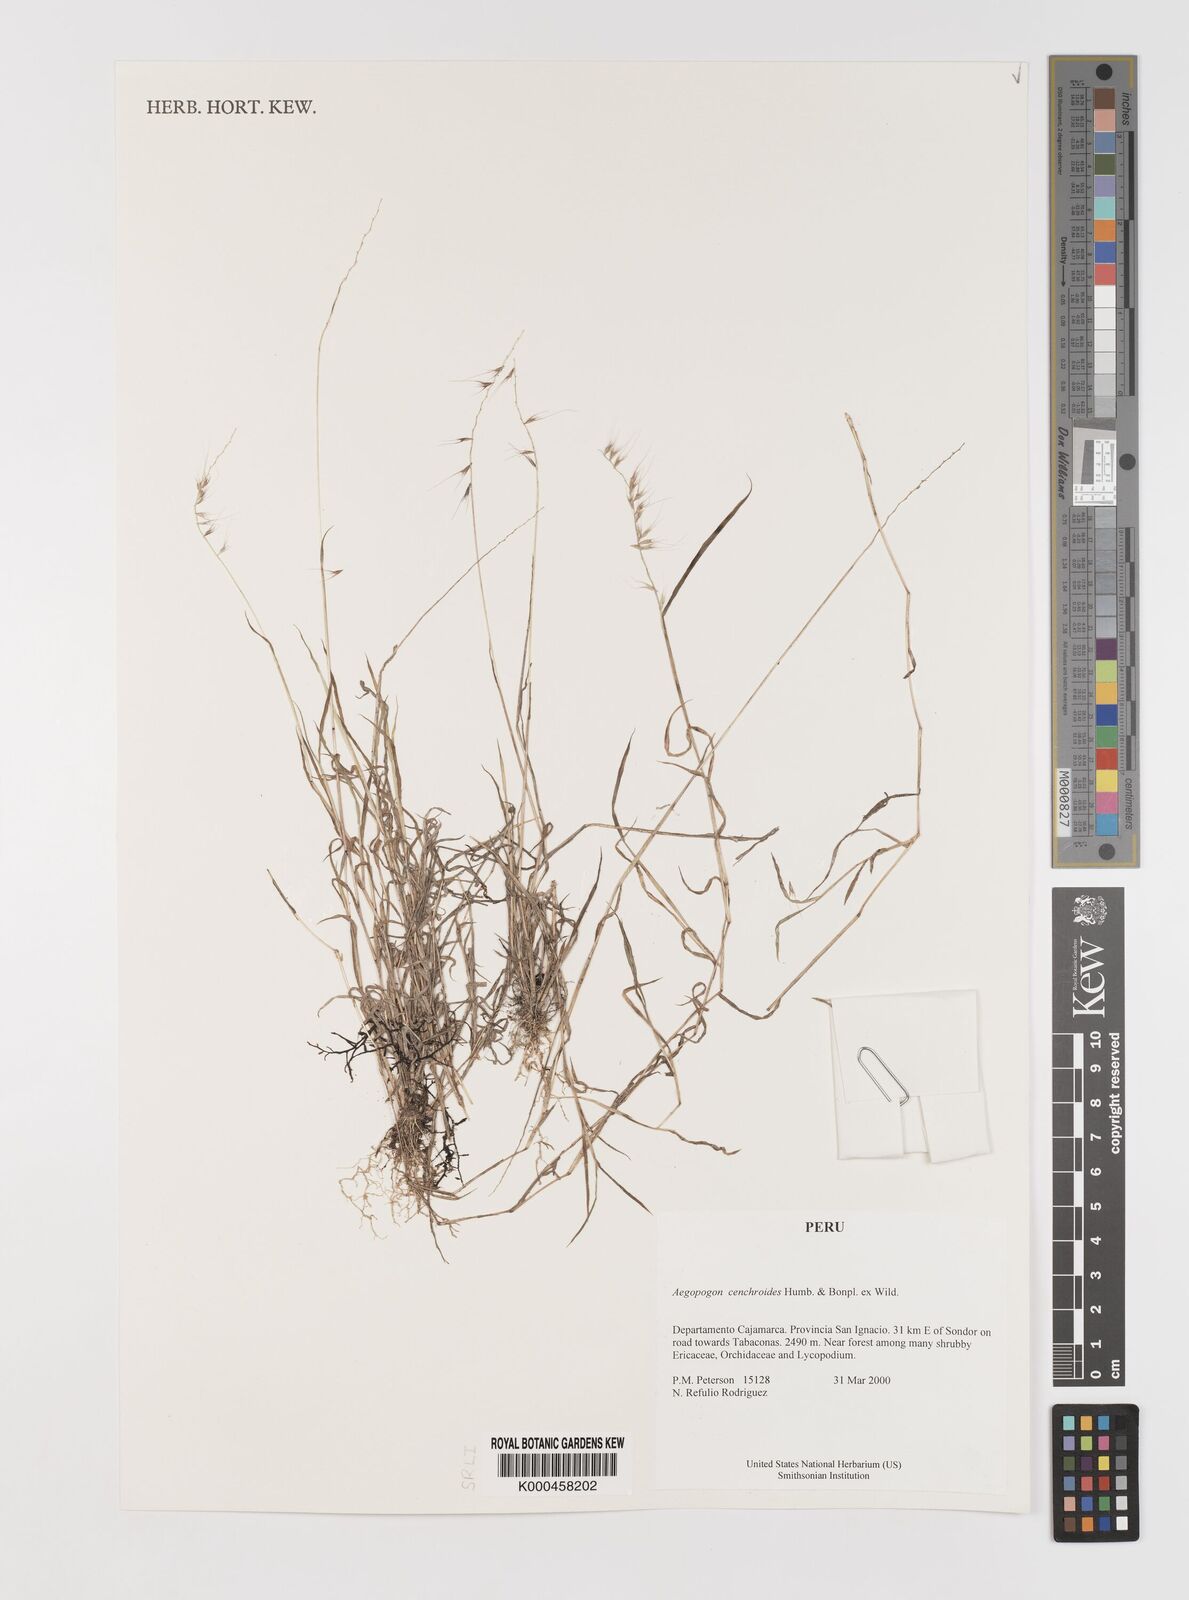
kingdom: Plantae
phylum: Tracheophyta
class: Liliopsida
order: Poales
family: Poaceae
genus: Muhlenbergia
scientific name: Muhlenbergia
